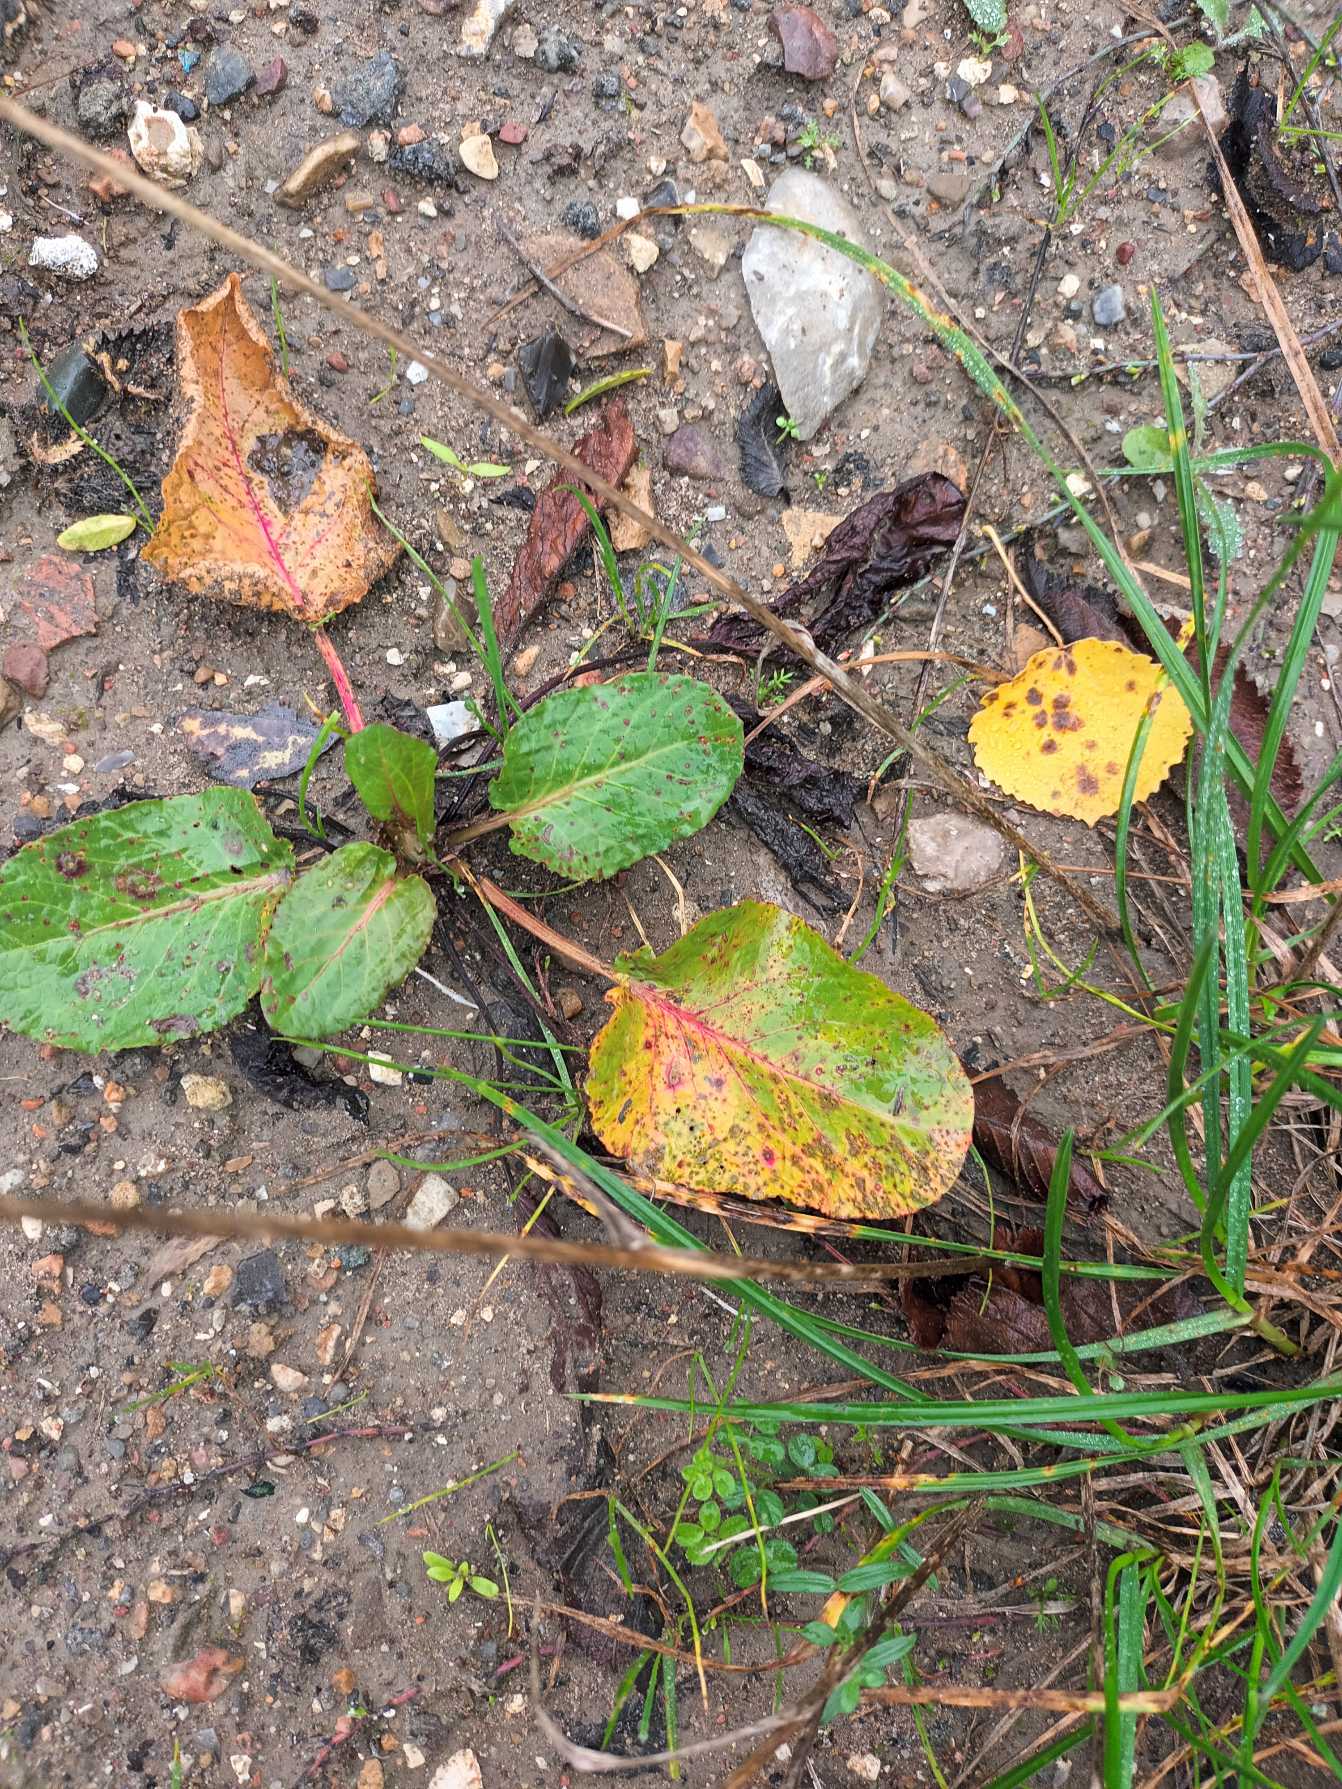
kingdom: Plantae
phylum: Tracheophyta
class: Magnoliopsida
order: Caryophyllales
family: Polygonaceae
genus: Rumex
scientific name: Rumex obtusifolius
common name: Butbladet skræppe
